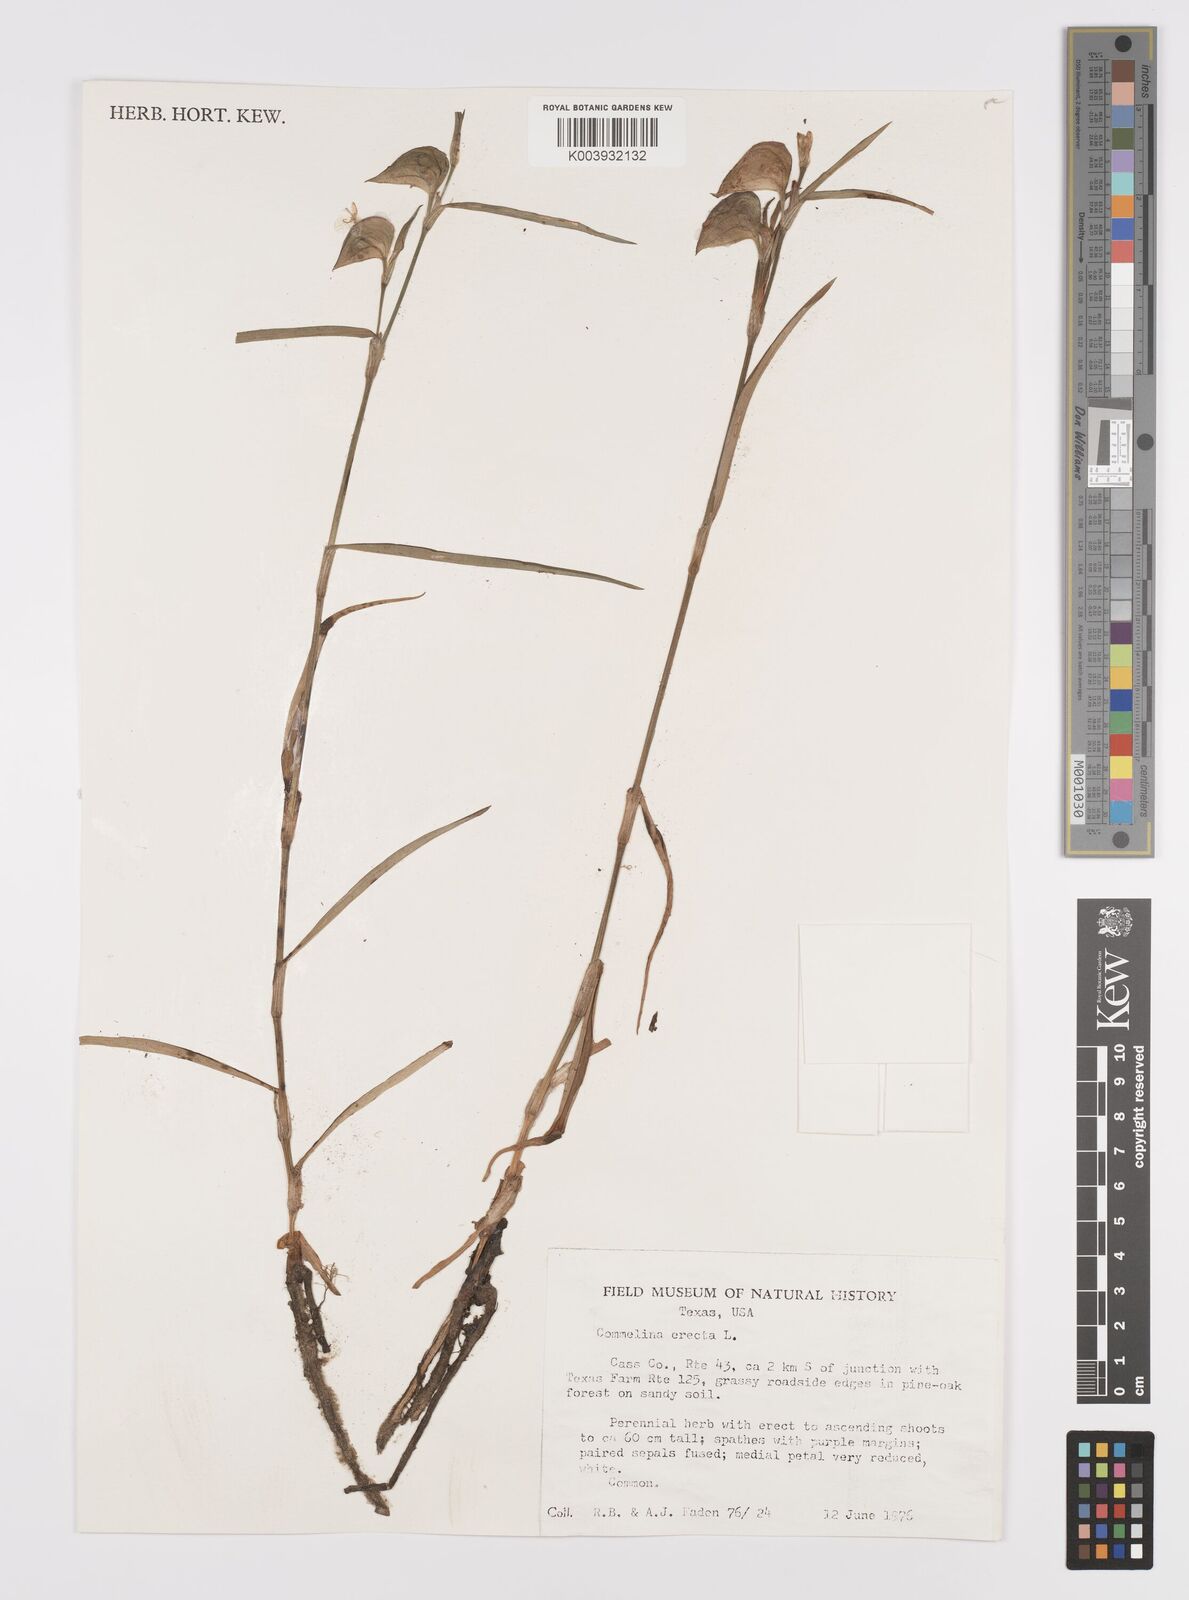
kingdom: Plantae
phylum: Tracheophyta
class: Liliopsida
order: Commelinales
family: Commelinaceae
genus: Commelina
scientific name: Commelina erecta
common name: Blousel blommetjie
